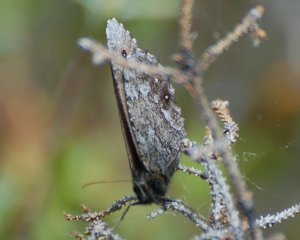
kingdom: Animalia
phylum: Arthropoda
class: Insecta
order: Lepidoptera
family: Nymphalidae
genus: Oeneis
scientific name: Oeneis jutta
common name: Jutta Arctic
